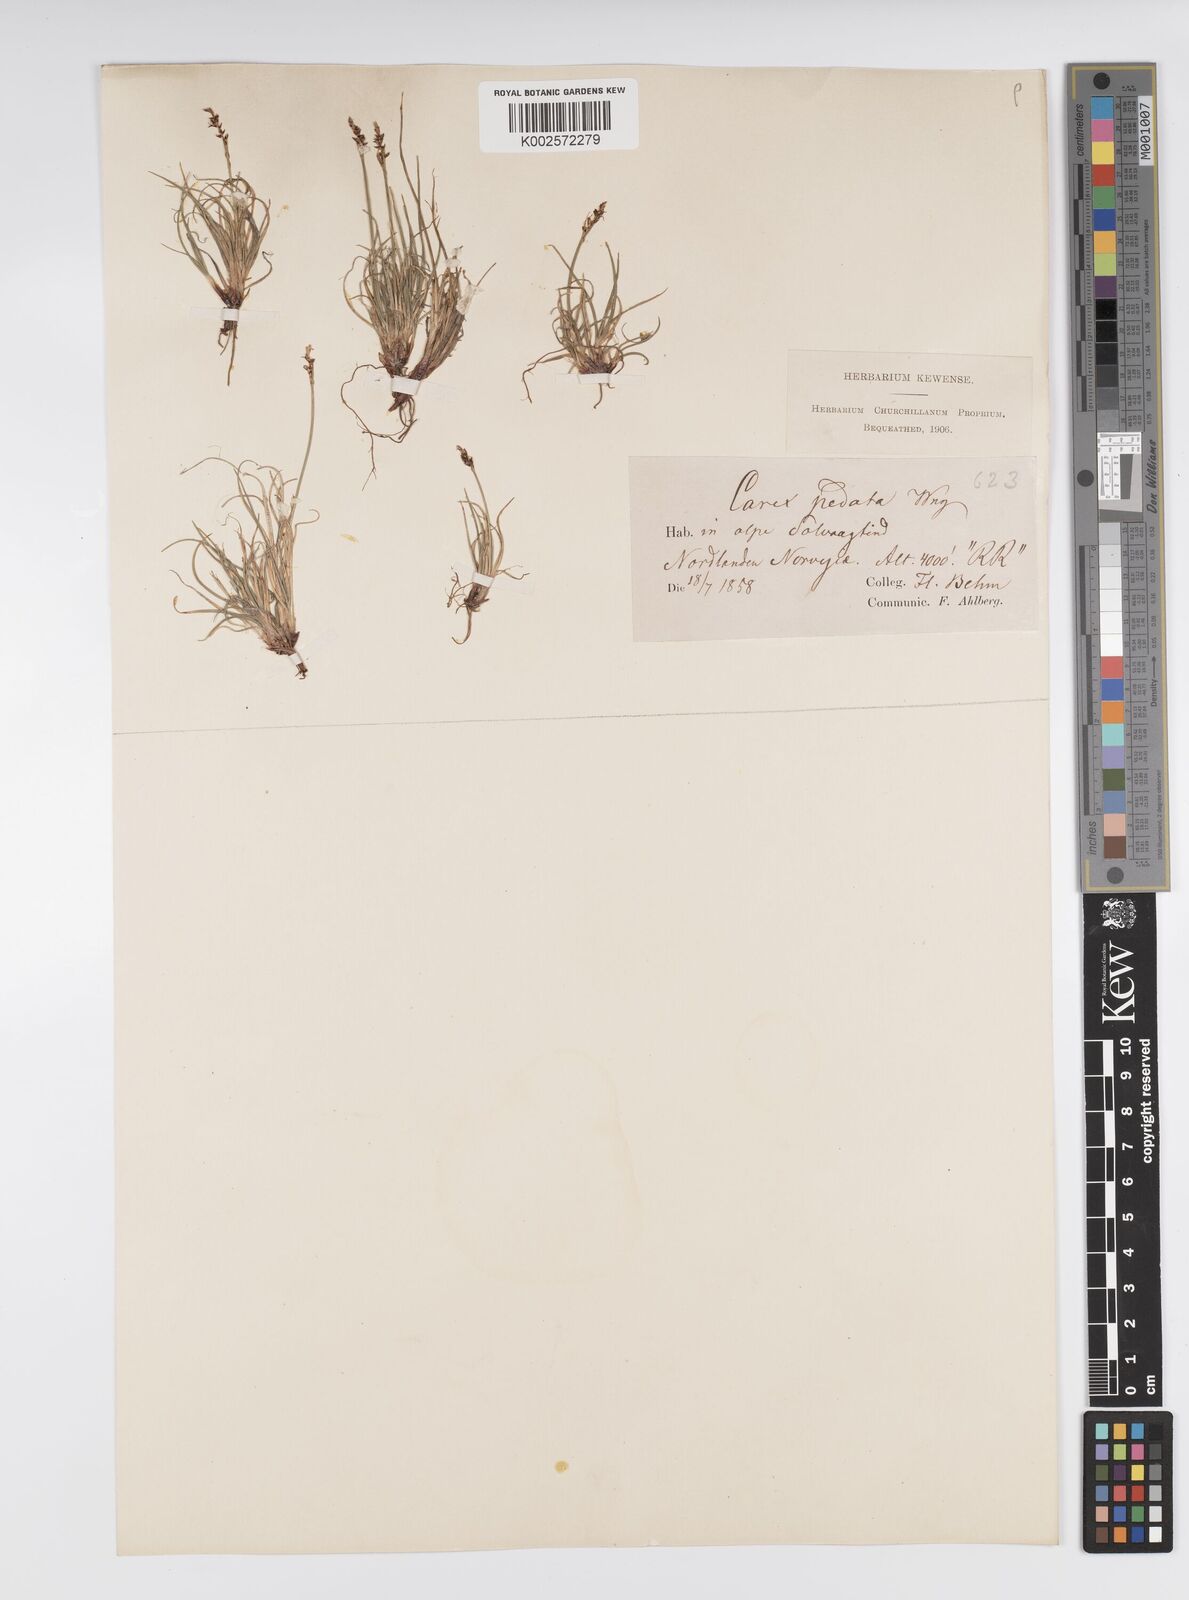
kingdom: Plantae
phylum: Tracheophyta
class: Liliopsida
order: Poales
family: Cyperaceae
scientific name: Cyperaceae
